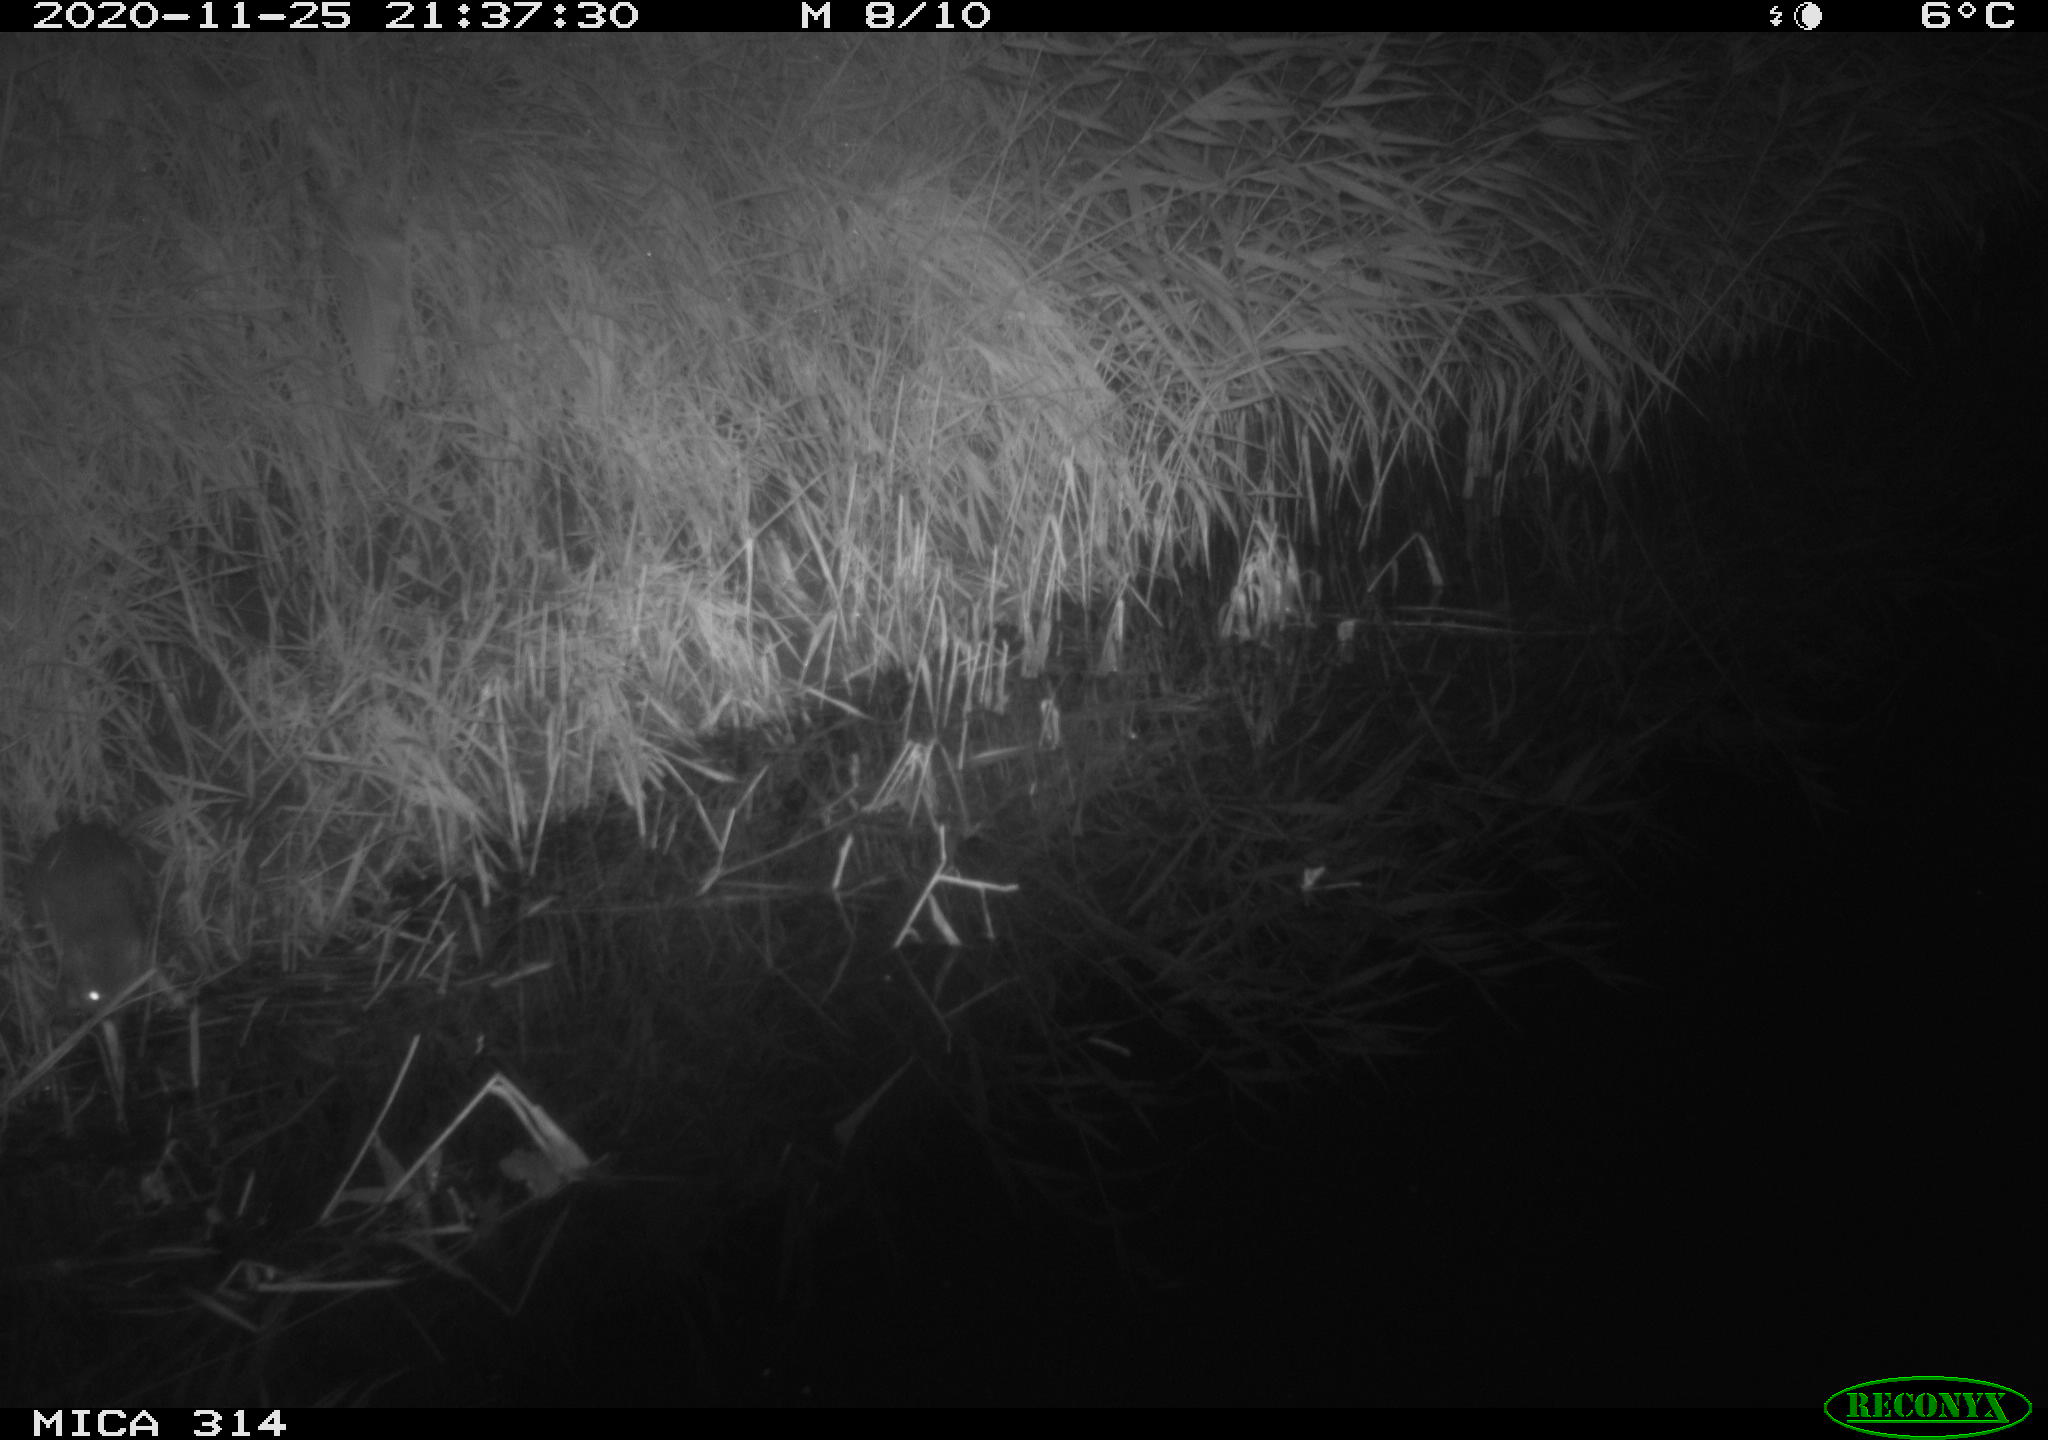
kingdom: Animalia
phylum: Chordata
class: Mammalia
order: Rodentia
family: Muridae
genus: Rattus
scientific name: Rattus norvegicus
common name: Brown rat
